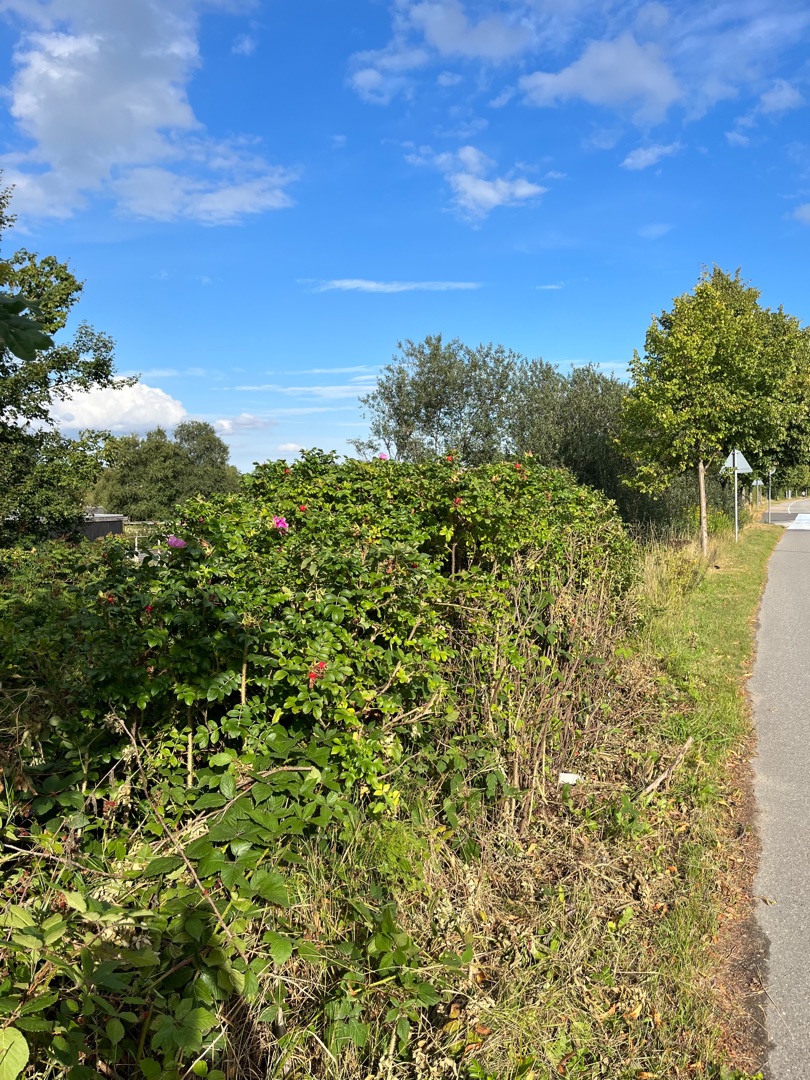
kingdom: Plantae
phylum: Tracheophyta
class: Magnoliopsida
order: Rosales
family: Rosaceae
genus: Rosa
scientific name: Rosa rugosa
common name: Rynket rose
